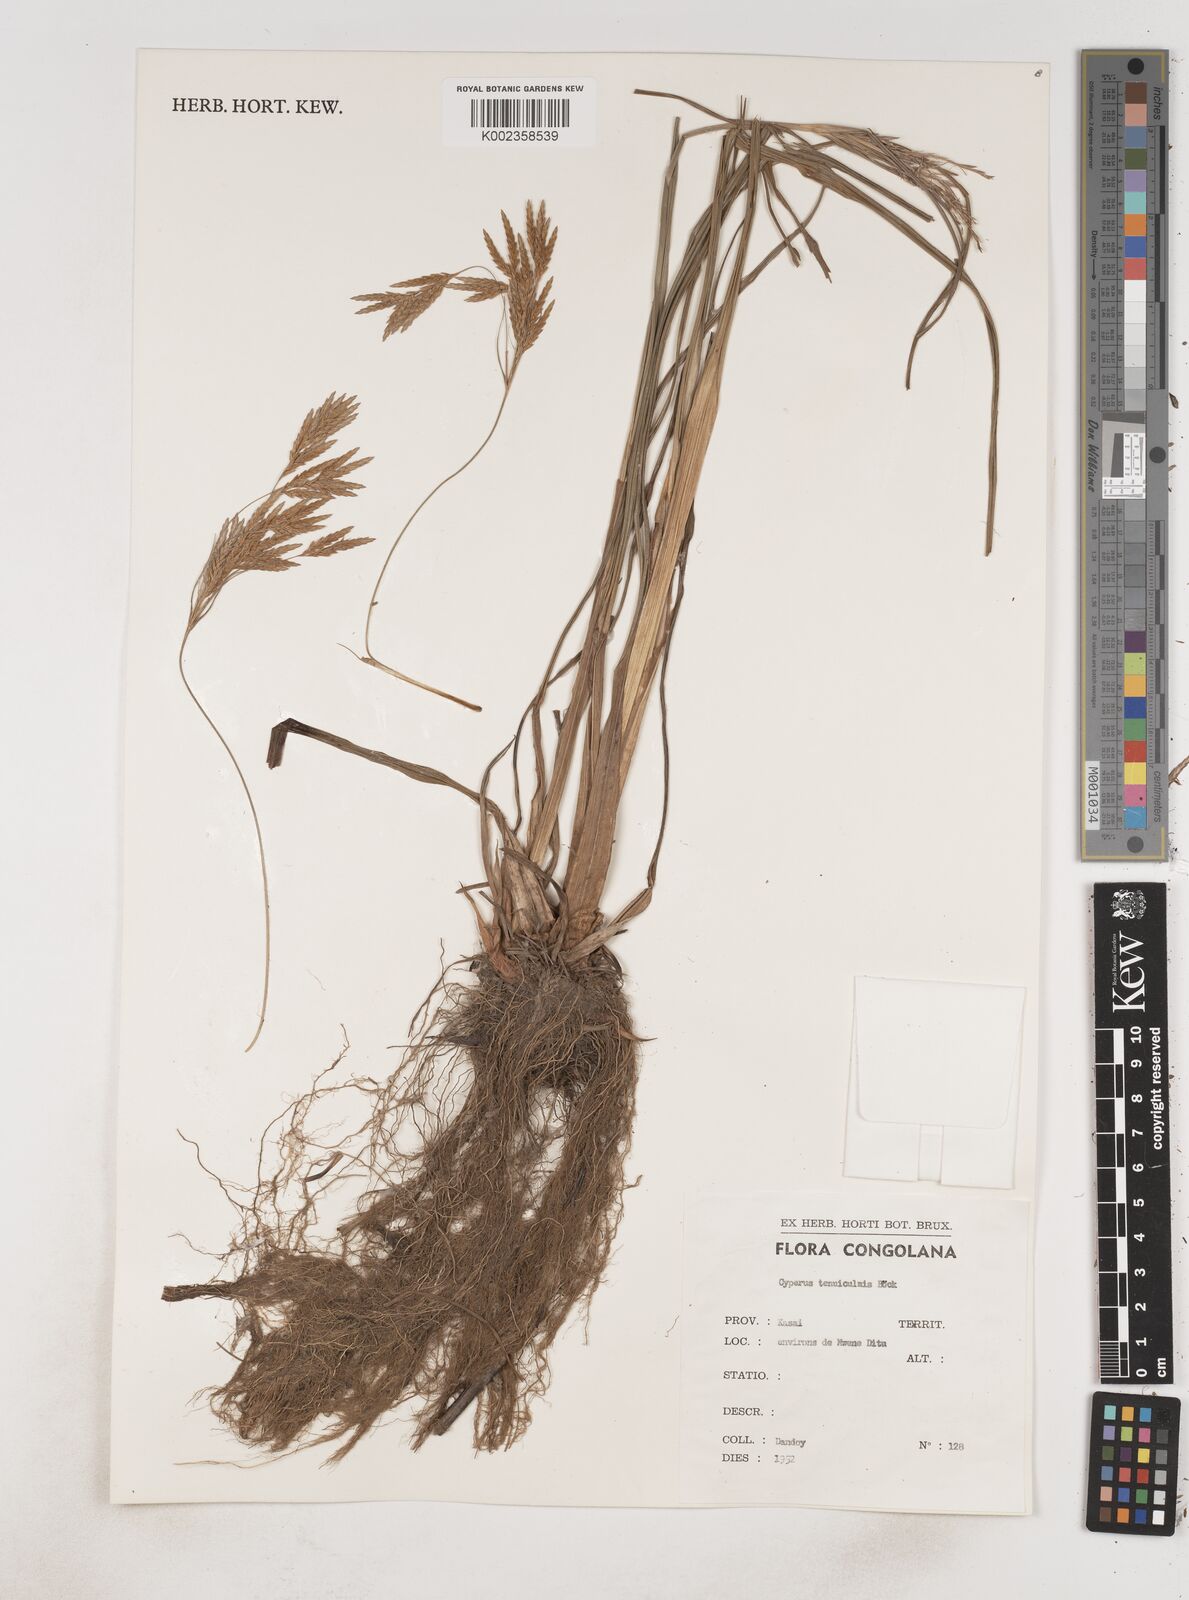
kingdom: Plantae
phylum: Tracheophyta
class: Liliopsida
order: Poales
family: Cyperaceae
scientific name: Cyperaceae
